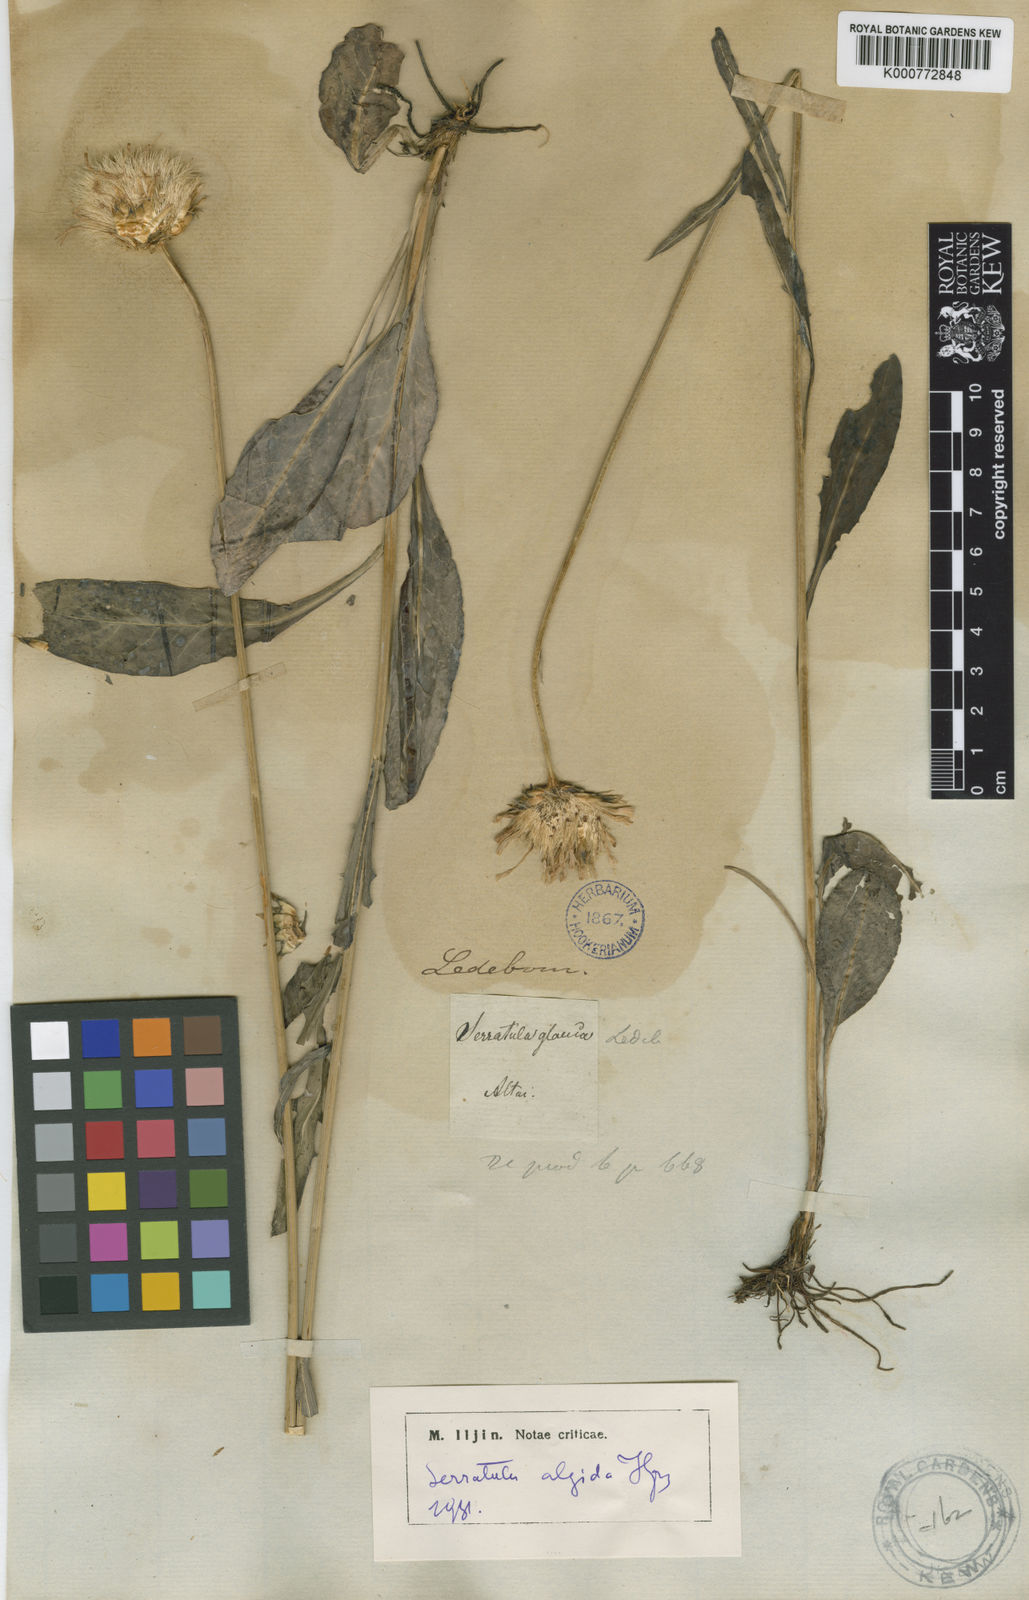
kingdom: Plantae
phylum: Tracheophyta
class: Magnoliopsida
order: Asterales
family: Asteraceae
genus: Klasea
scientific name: Klasea marginata
